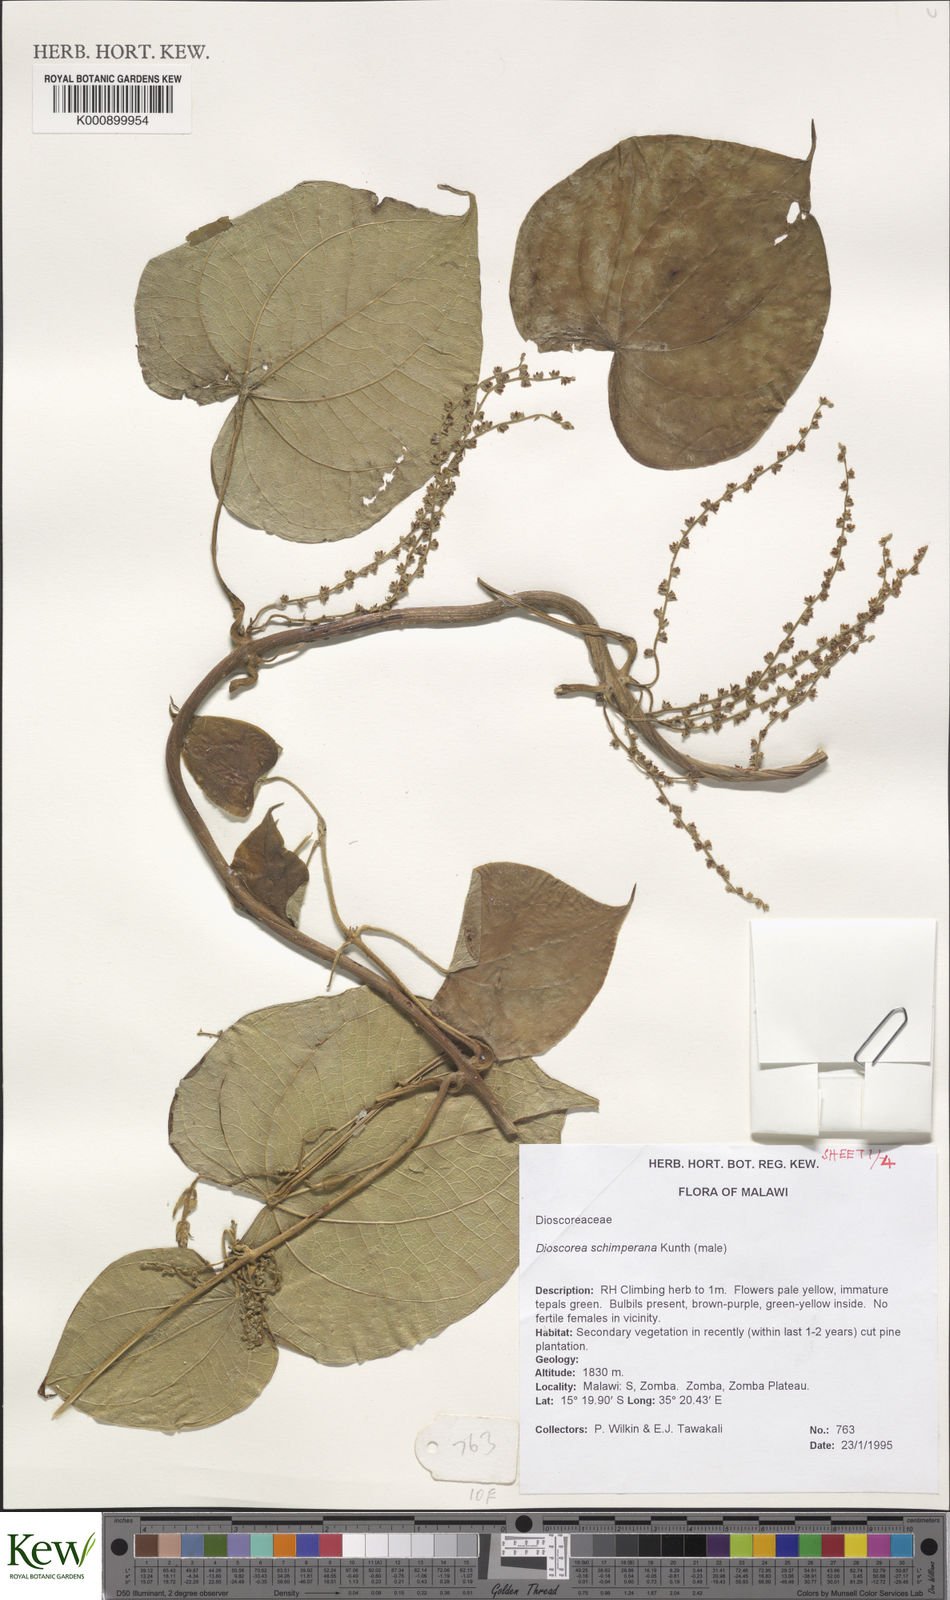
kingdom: Plantae
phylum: Tracheophyta
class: Liliopsida
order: Dioscoreales
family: Dioscoreaceae
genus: Dioscorea
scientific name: Dioscorea schimperiana
